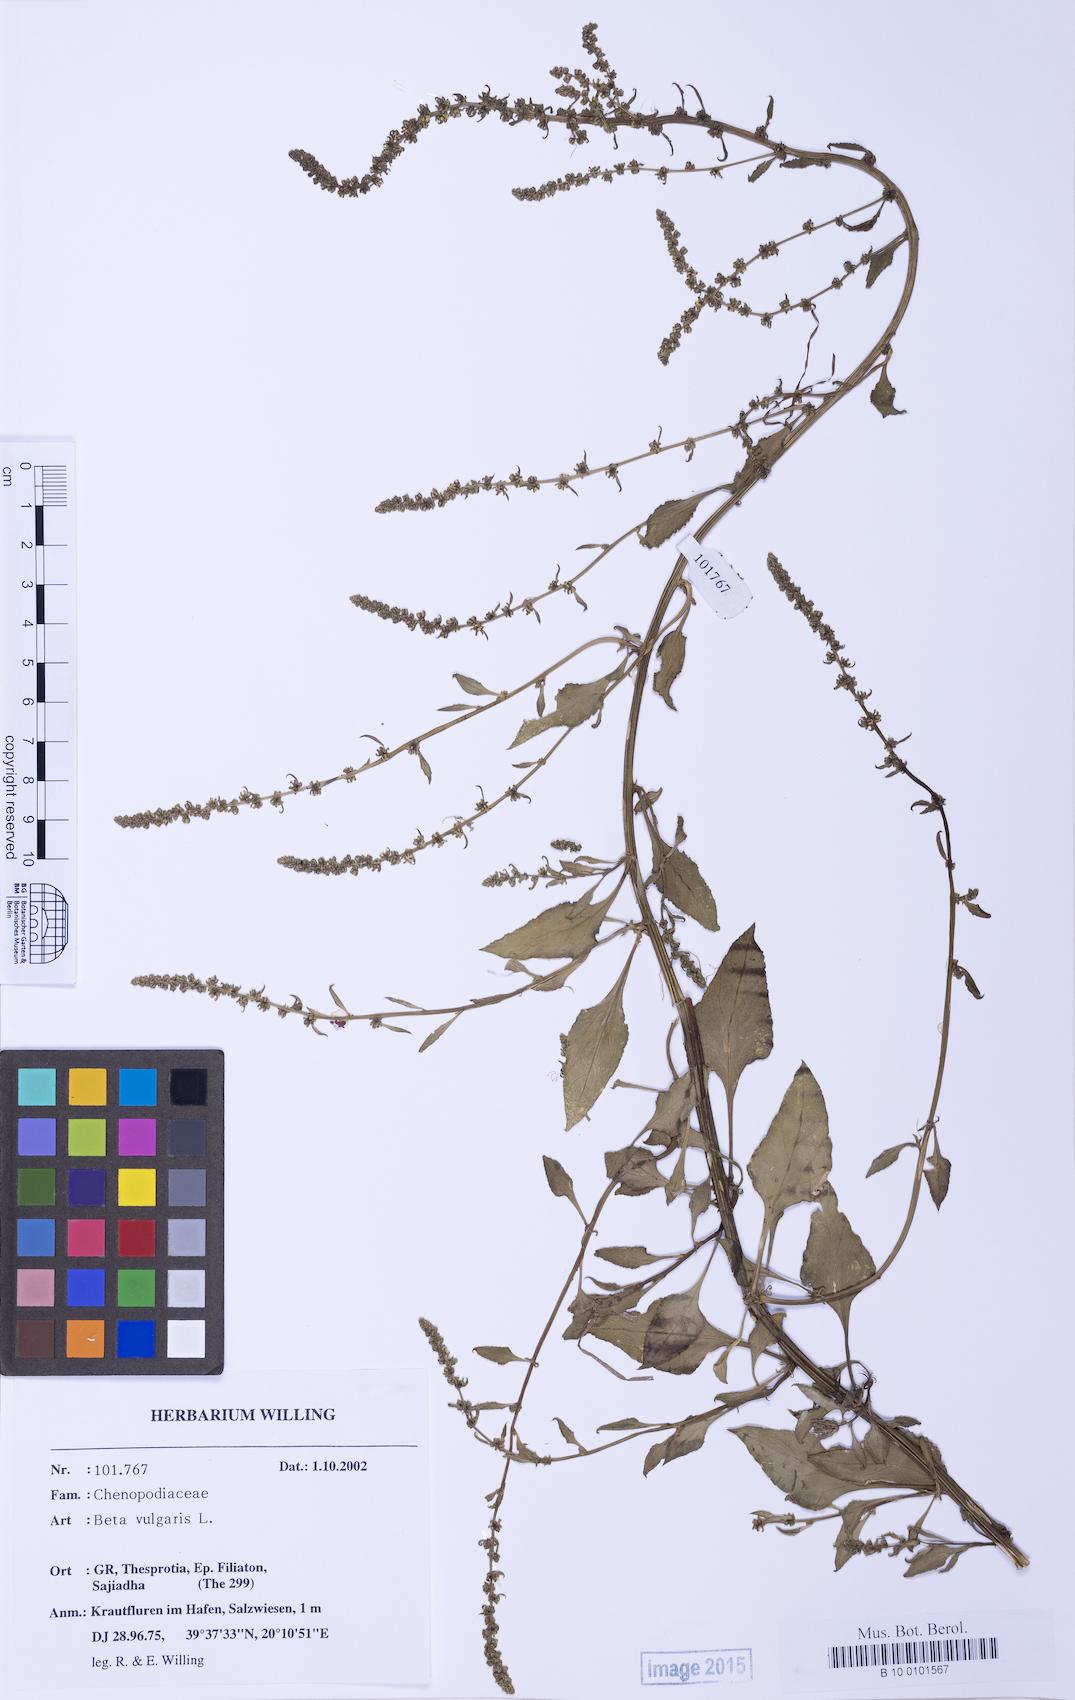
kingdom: Plantae
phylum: Tracheophyta
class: Magnoliopsida
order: Caryophyllales
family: Amaranthaceae
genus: Beta
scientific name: Beta macrocarpa
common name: Beet
